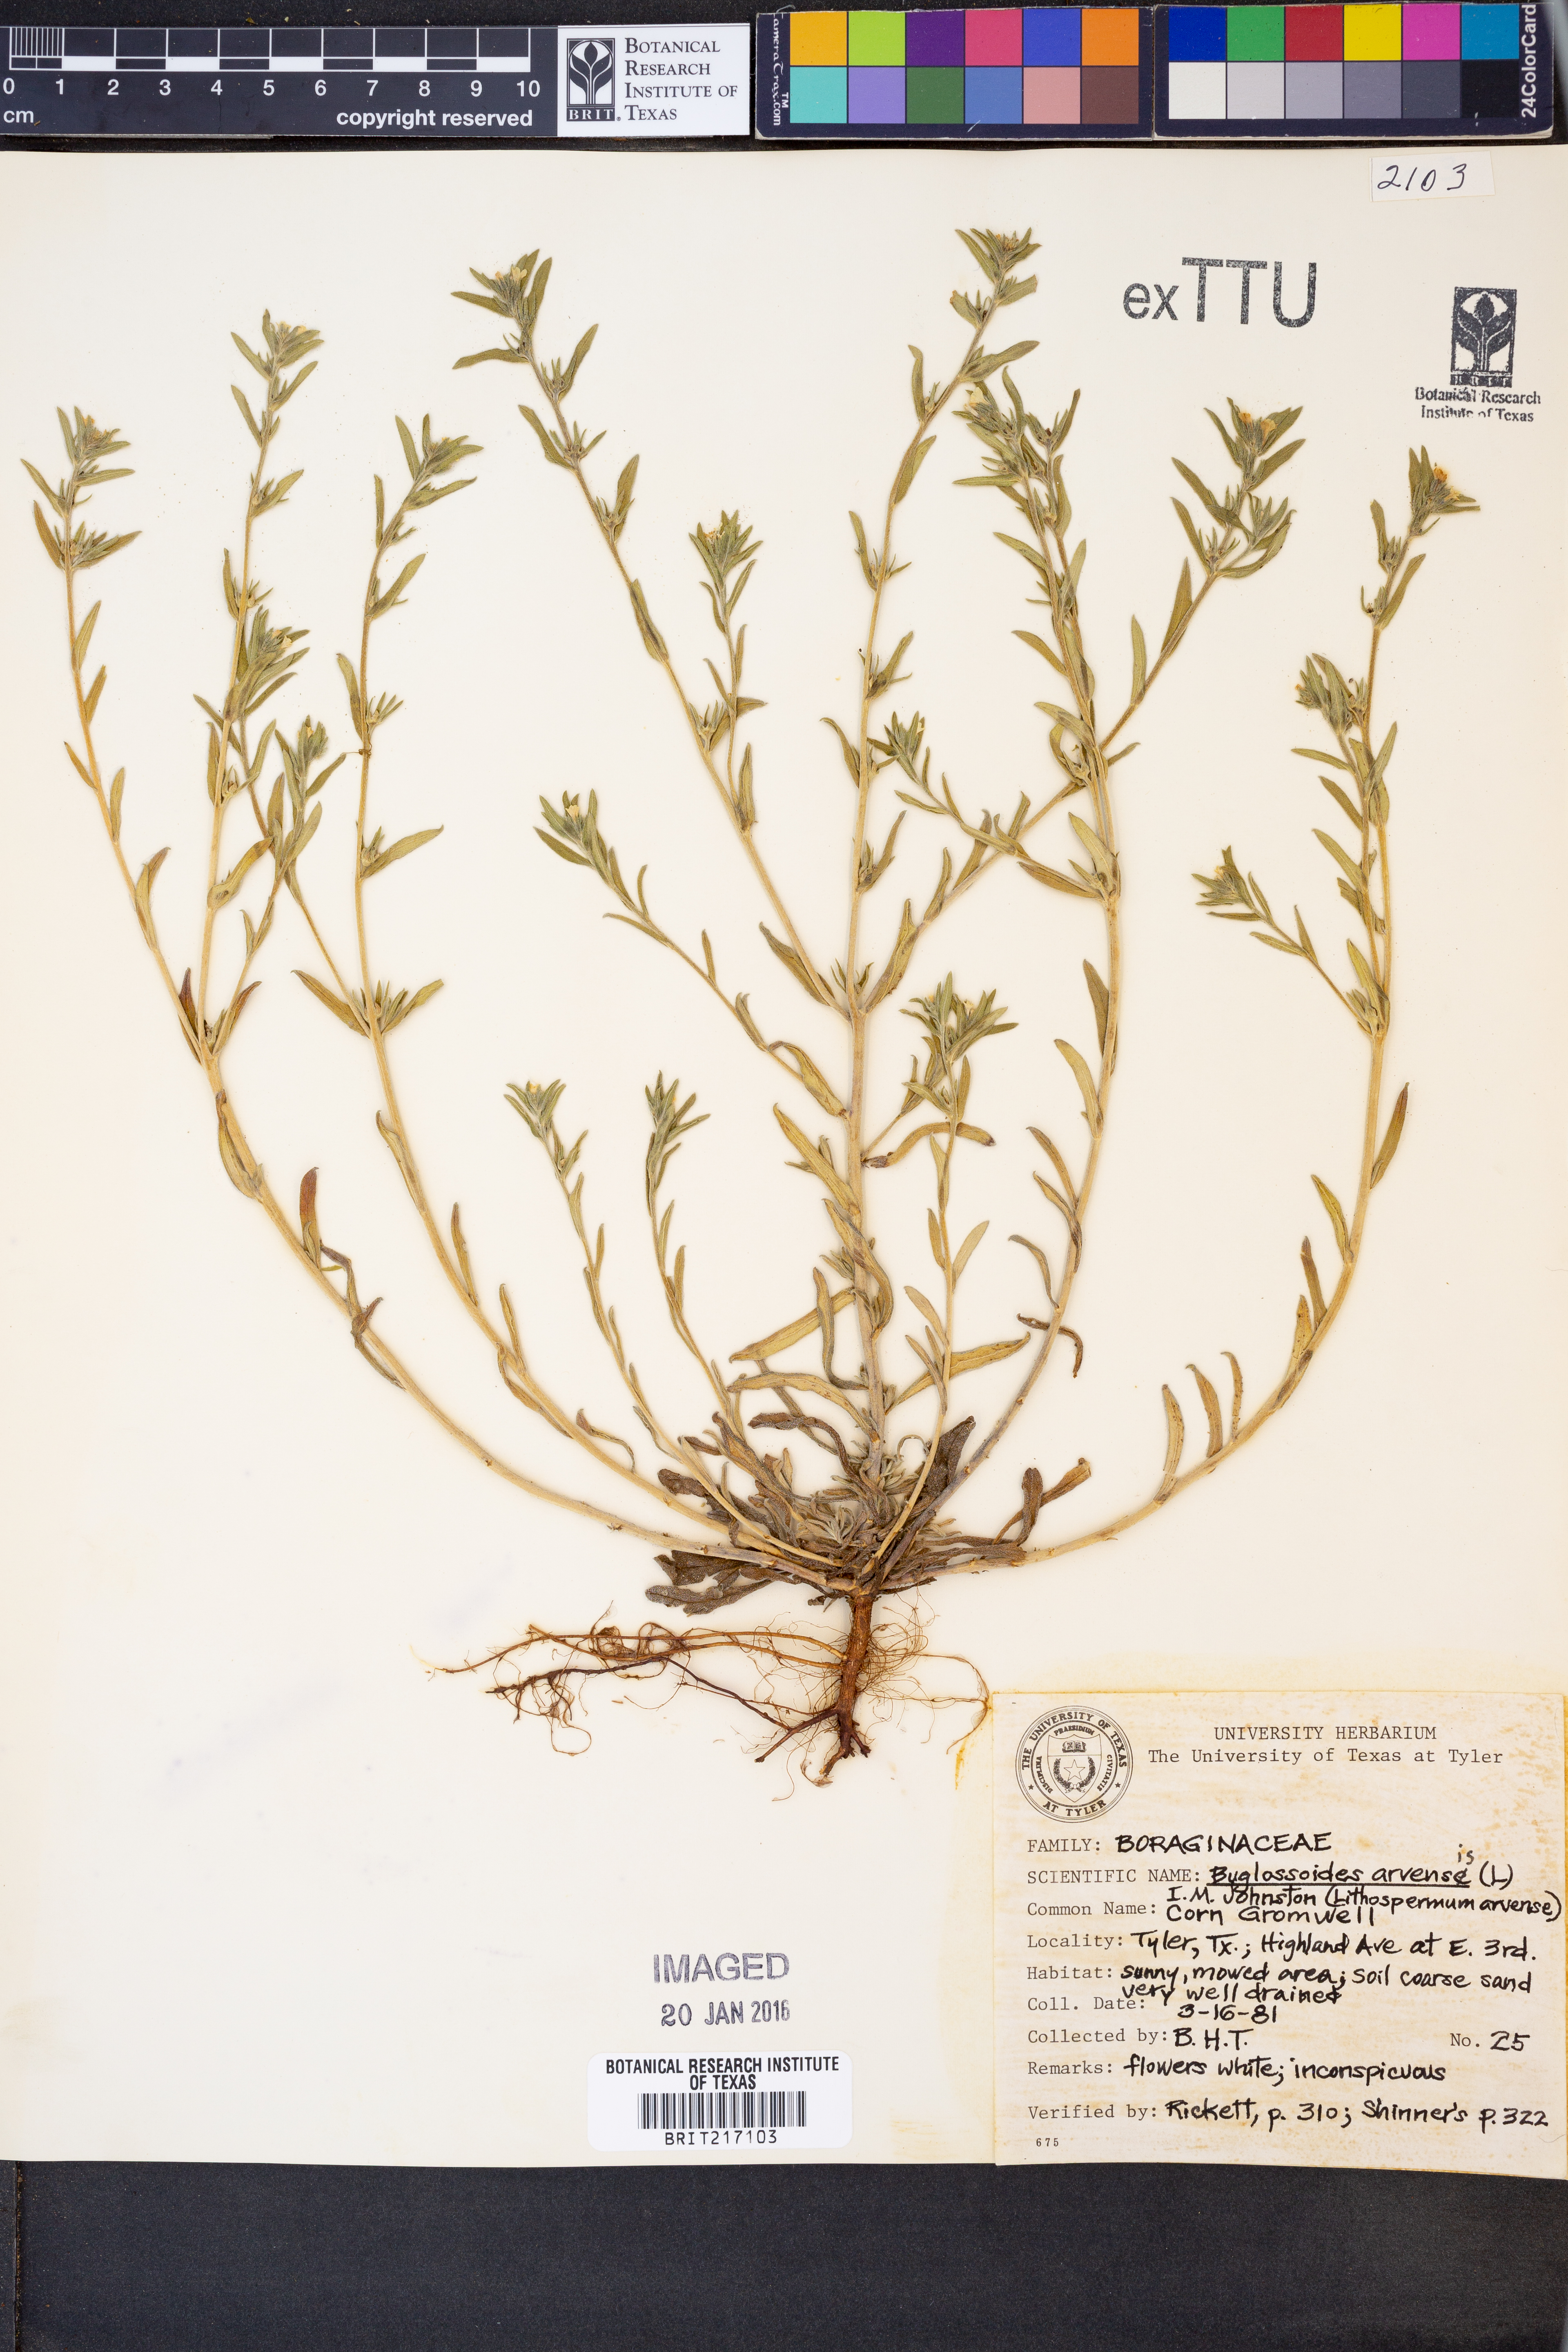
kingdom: Plantae
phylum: Tracheophyta
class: Magnoliopsida
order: Boraginales
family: Boraginaceae
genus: Buglossoides
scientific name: Buglossoides arvensis
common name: Corn gromwell
